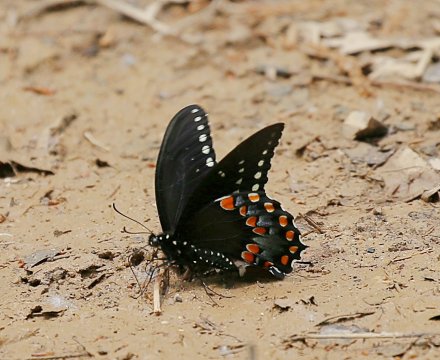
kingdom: Animalia
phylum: Arthropoda
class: Insecta
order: Lepidoptera
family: Papilionidae
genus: Pterourus
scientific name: Pterourus troilus
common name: Spicebush Swallowtail
